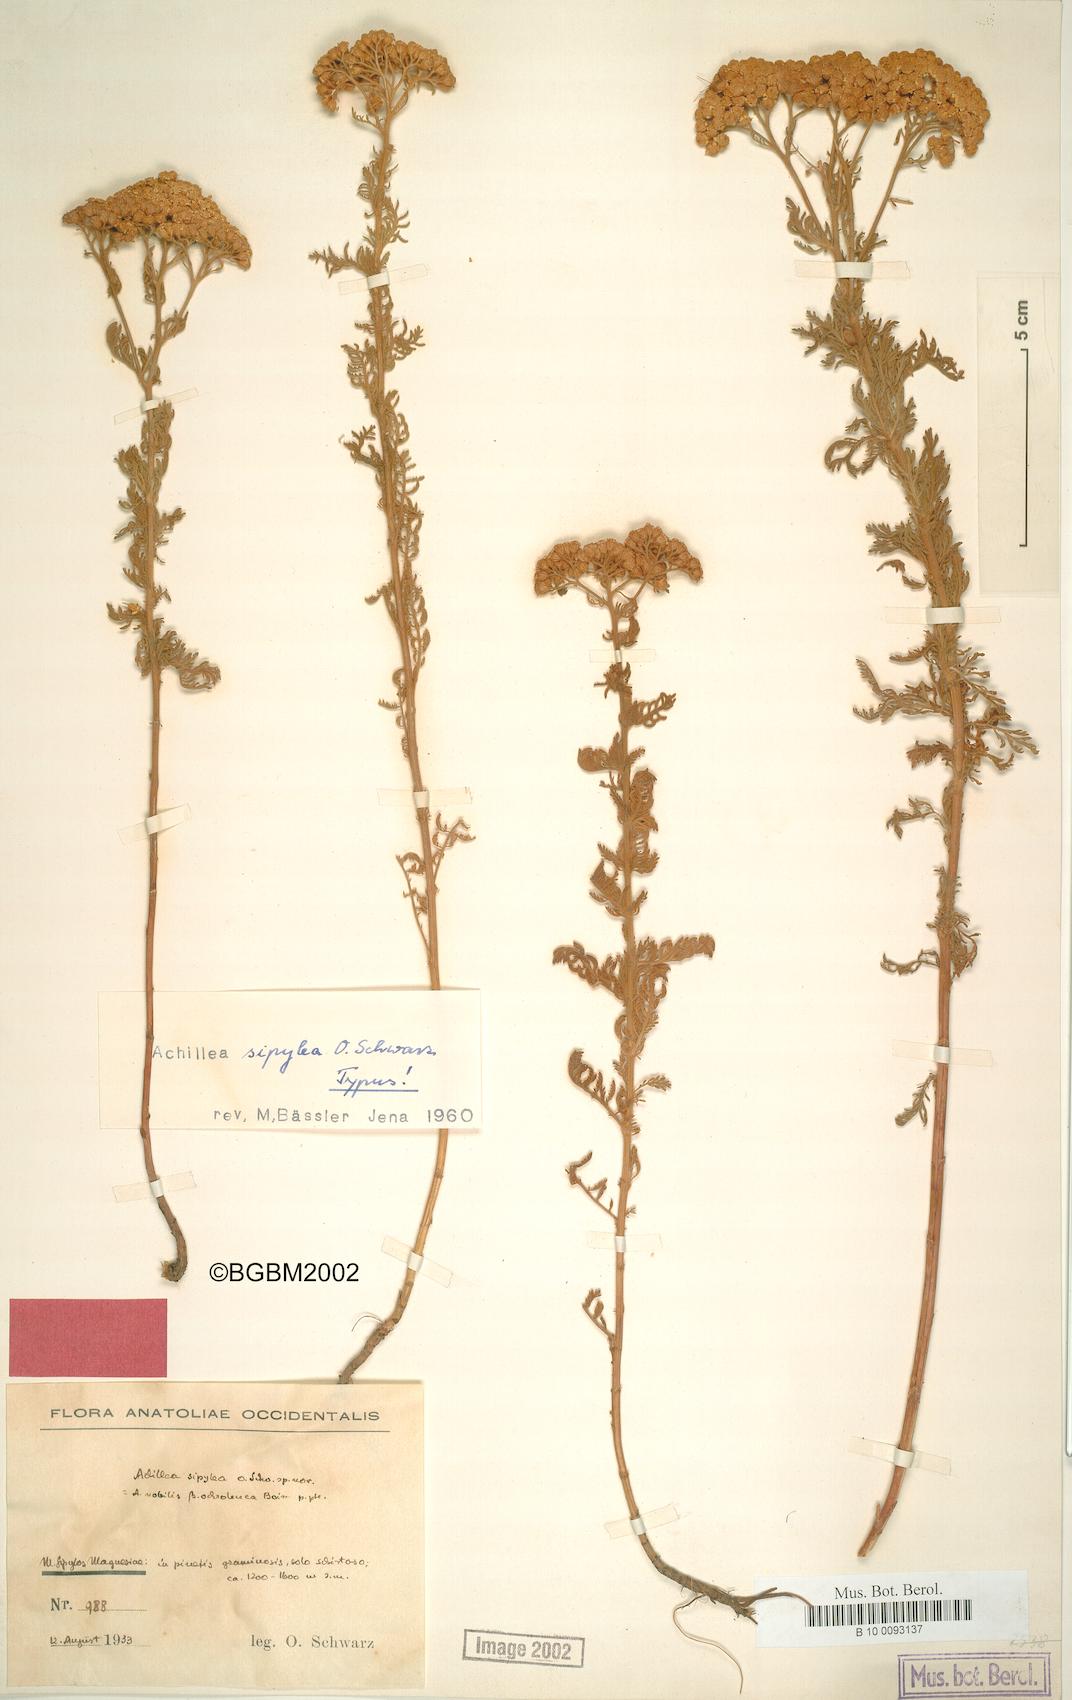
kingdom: Plantae
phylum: Tracheophyta
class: Magnoliopsida
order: Asterales
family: Asteraceae
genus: Achillea
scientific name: Achillea nobilis
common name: Noble yarrow
